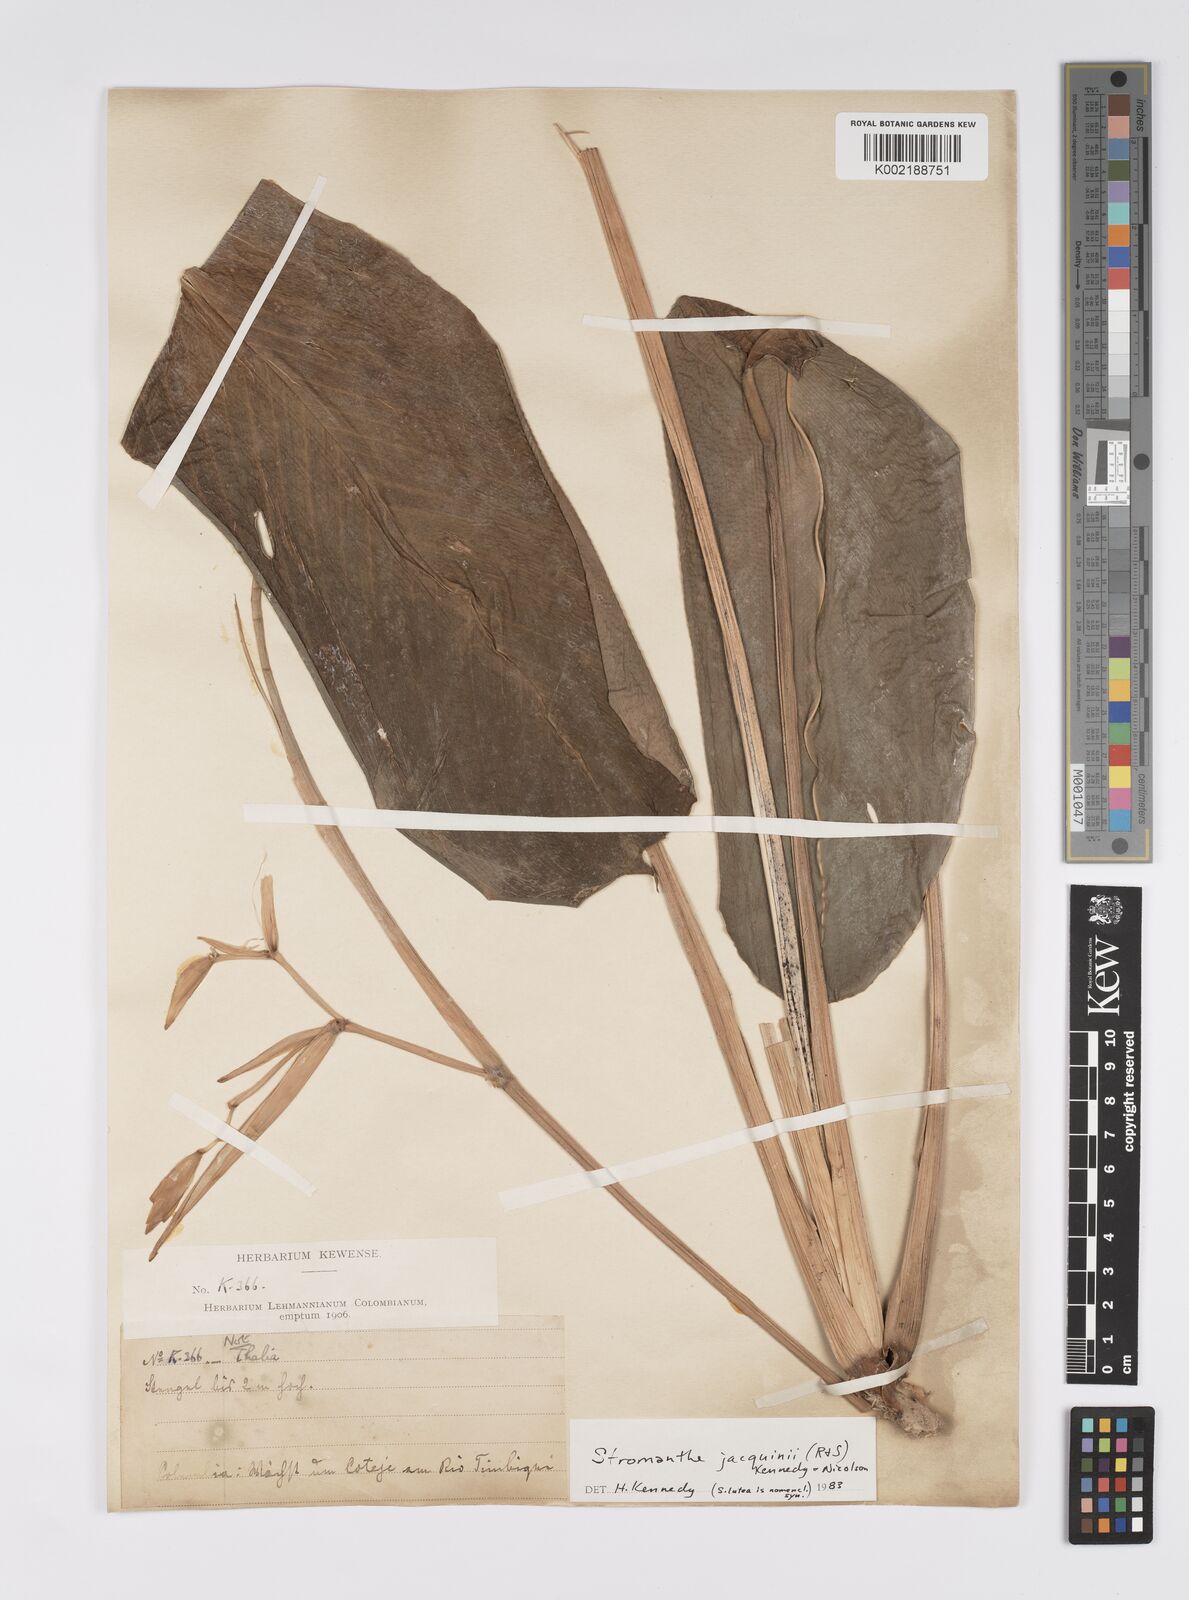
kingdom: Plantae
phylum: Tracheophyta
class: Liliopsida
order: Zingiberales
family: Marantaceae
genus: Stromanthe
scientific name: Stromanthe jacquinii
